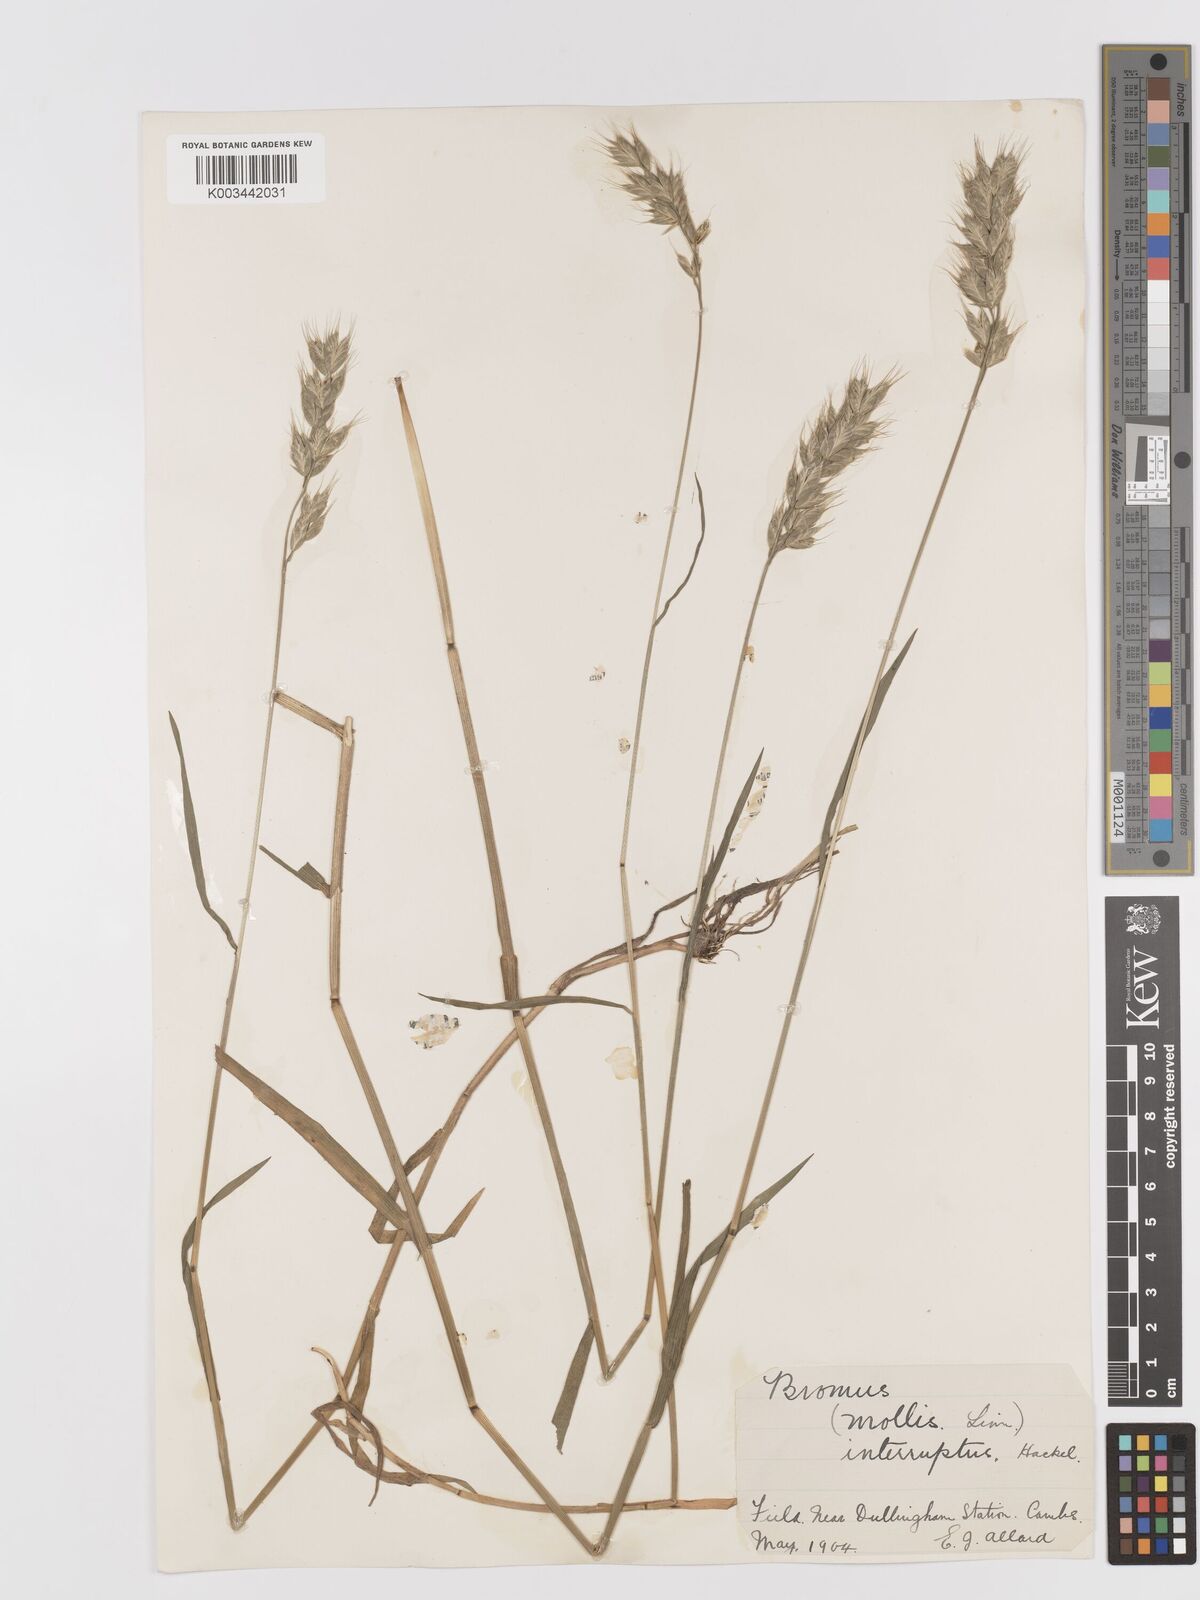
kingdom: Plantae
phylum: Tracheophyta
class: Liliopsida
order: Poales
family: Poaceae
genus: Bromus
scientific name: Bromus interruptus
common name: Interrupted brome
